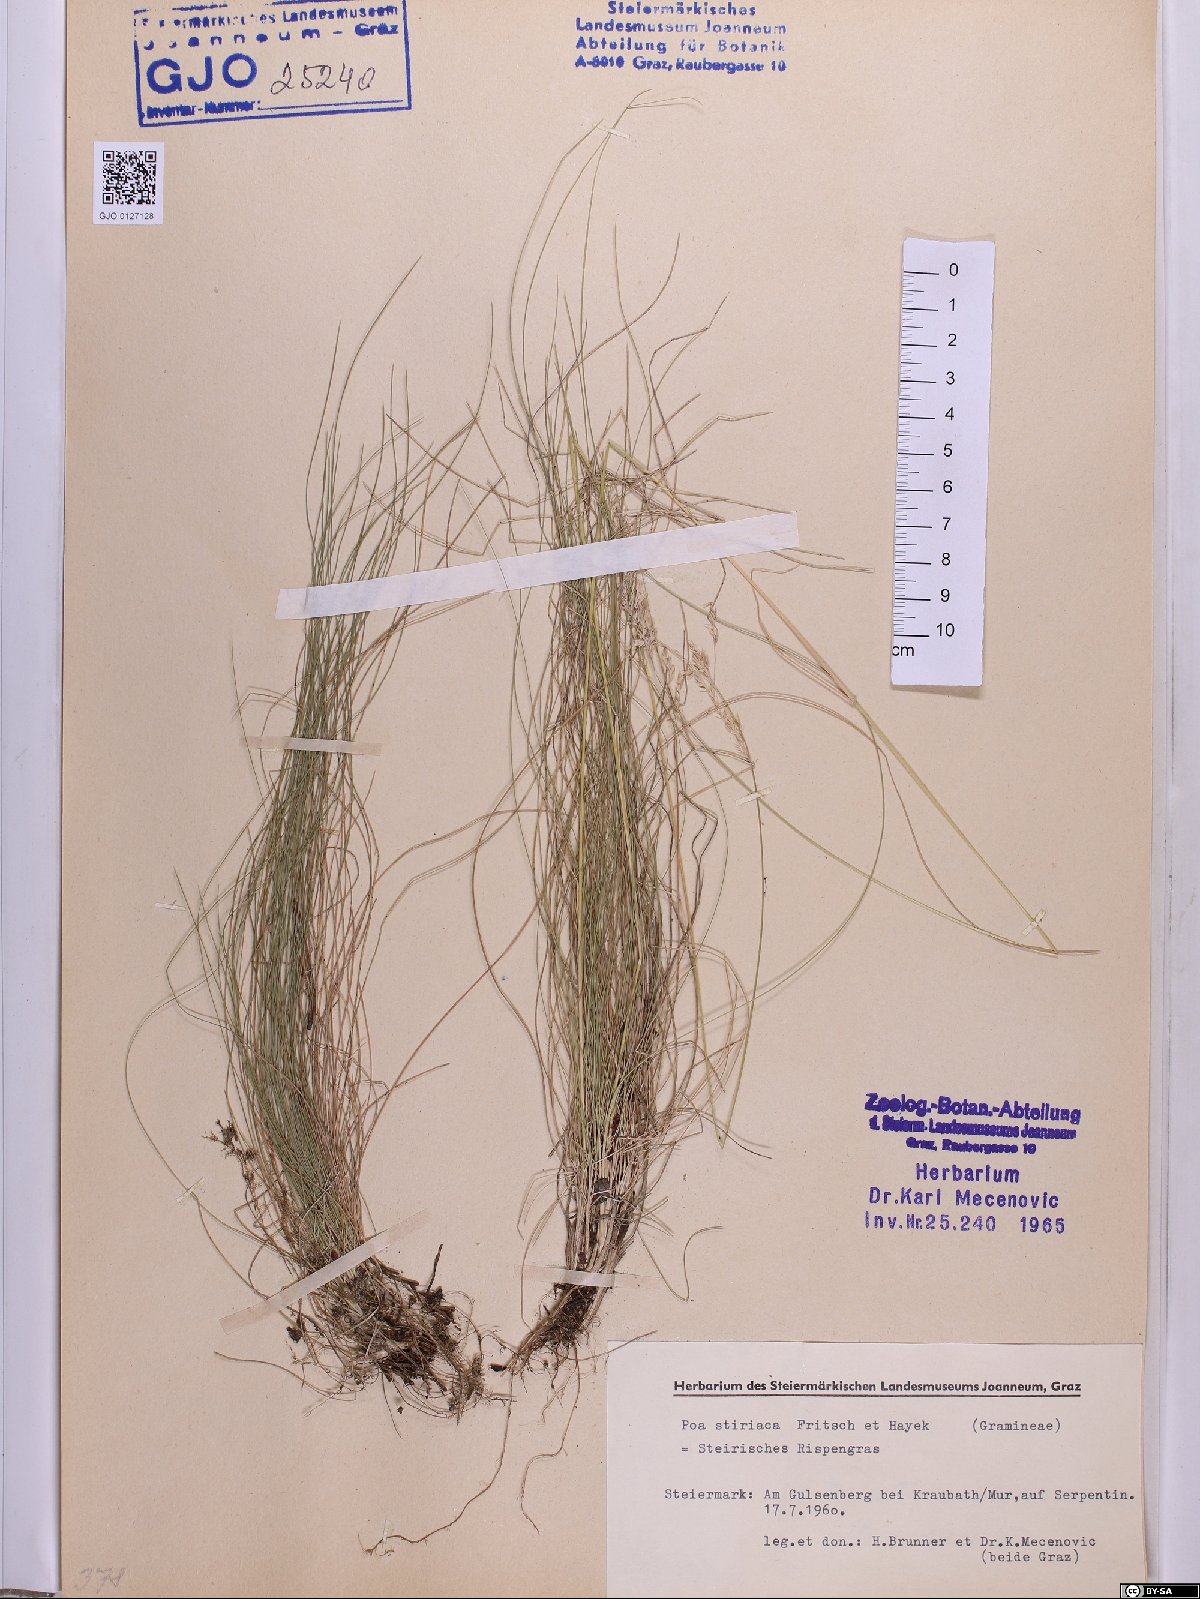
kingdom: Plantae
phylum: Tracheophyta
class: Liliopsida
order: Poales
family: Poaceae
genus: Poa
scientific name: Poa stiriaca
